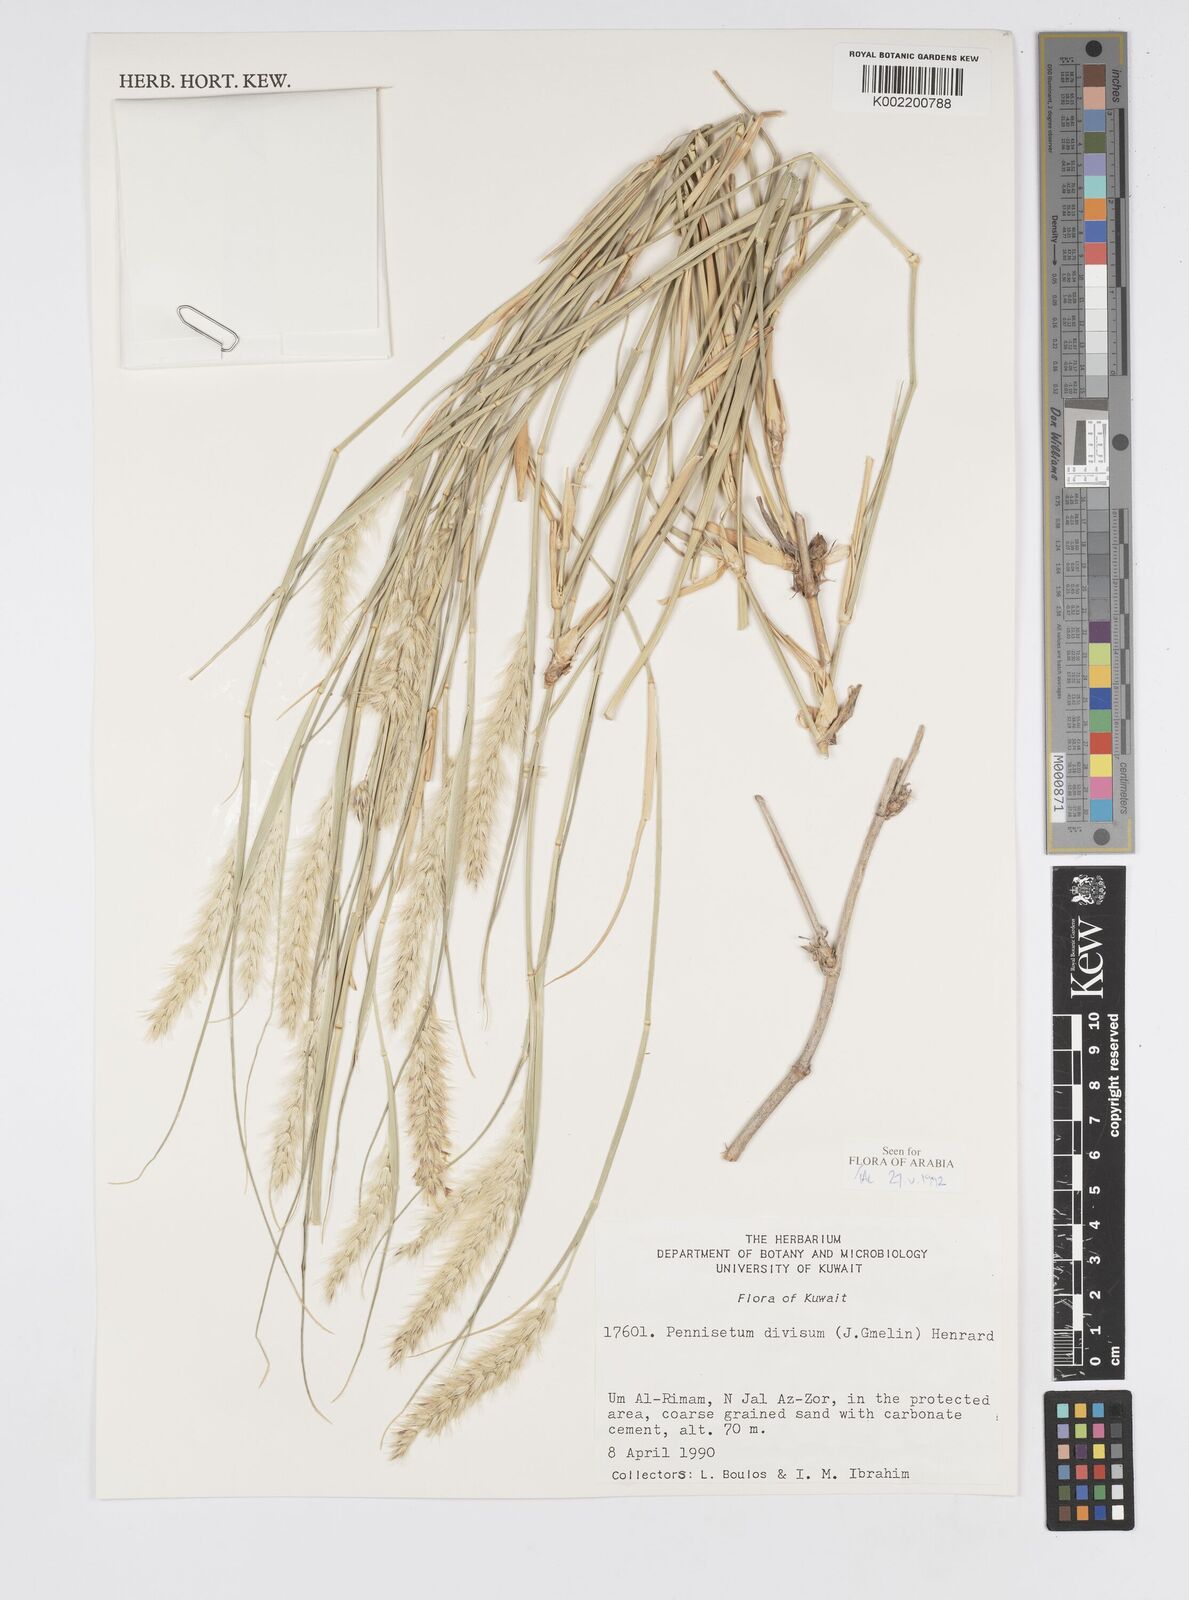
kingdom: Plantae
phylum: Tracheophyta
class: Liliopsida
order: Poales
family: Poaceae
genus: Cenchrus
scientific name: Cenchrus divisus
